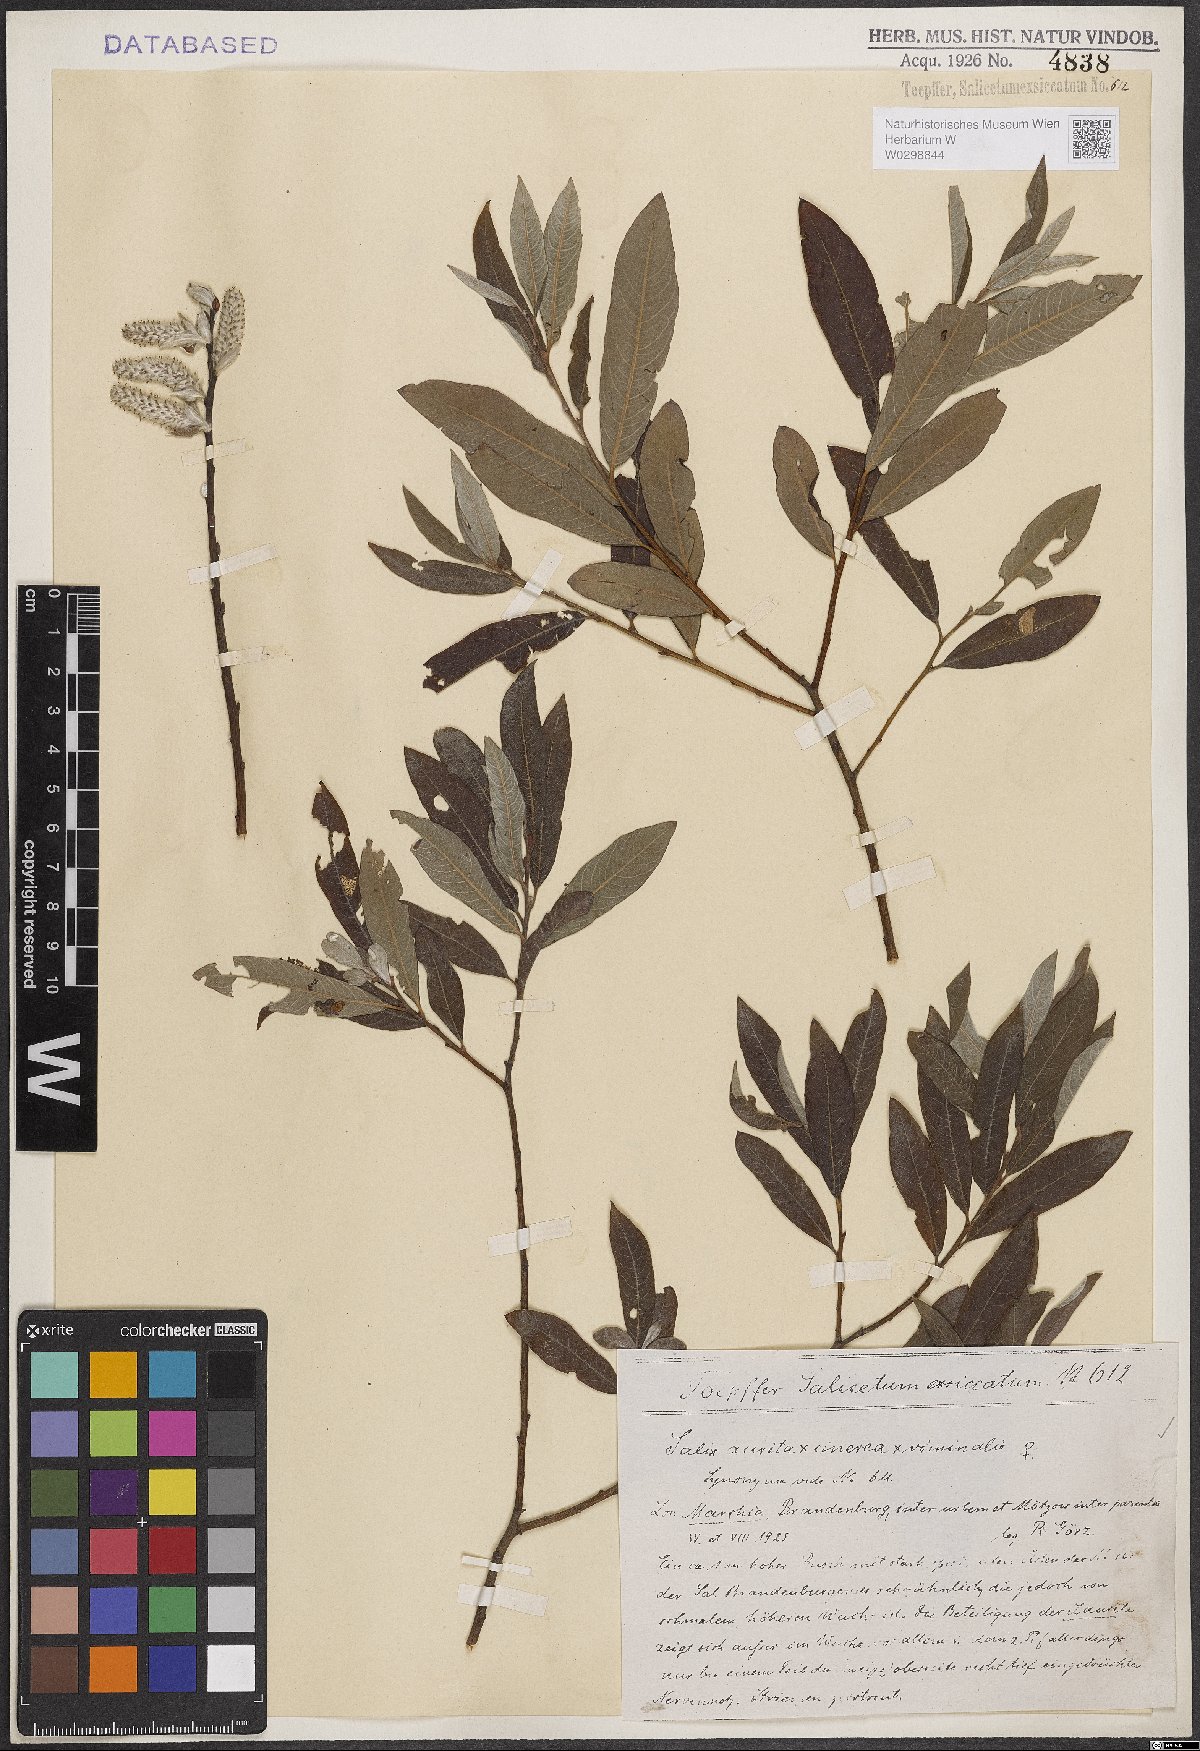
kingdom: Plantae
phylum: Tracheophyta
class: Magnoliopsida
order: Malpighiales
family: Salicaceae
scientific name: Salicaceae
